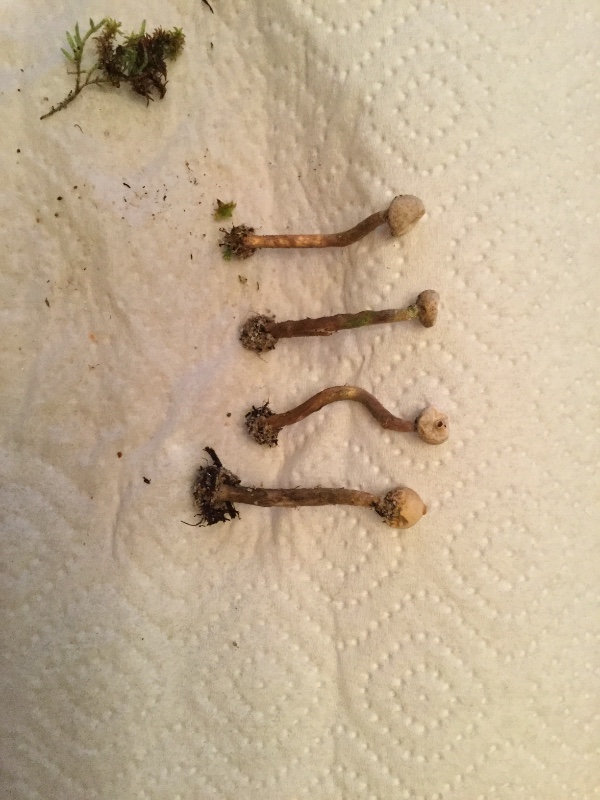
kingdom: Fungi
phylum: Basidiomycota
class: Agaricomycetes
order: Agaricales
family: Agaricaceae
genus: Tulostoma
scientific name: Tulostoma brumale
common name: vinter-stilkbovist
